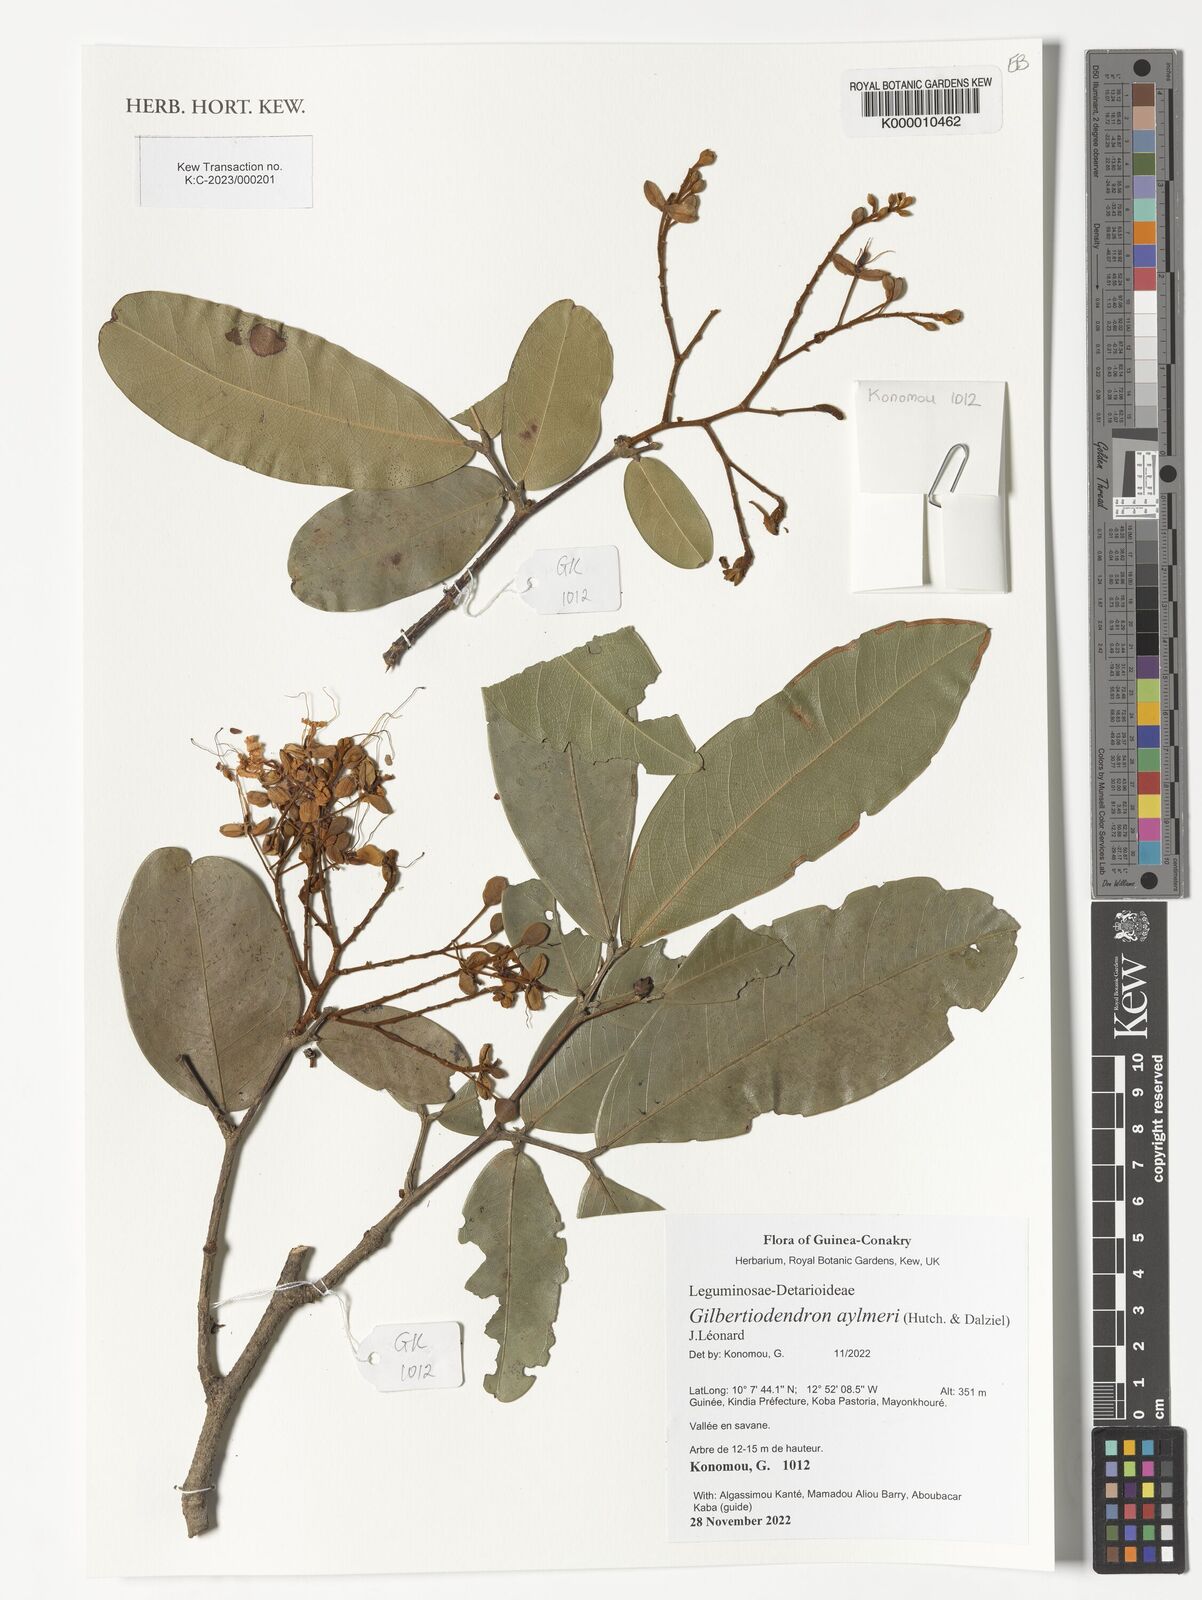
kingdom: Plantae
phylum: Tracheophyta
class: Magnoliopsida
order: Fabales
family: Fabaceae
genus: Gilbertiodendron
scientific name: Gilbertiodendron aylmeri
